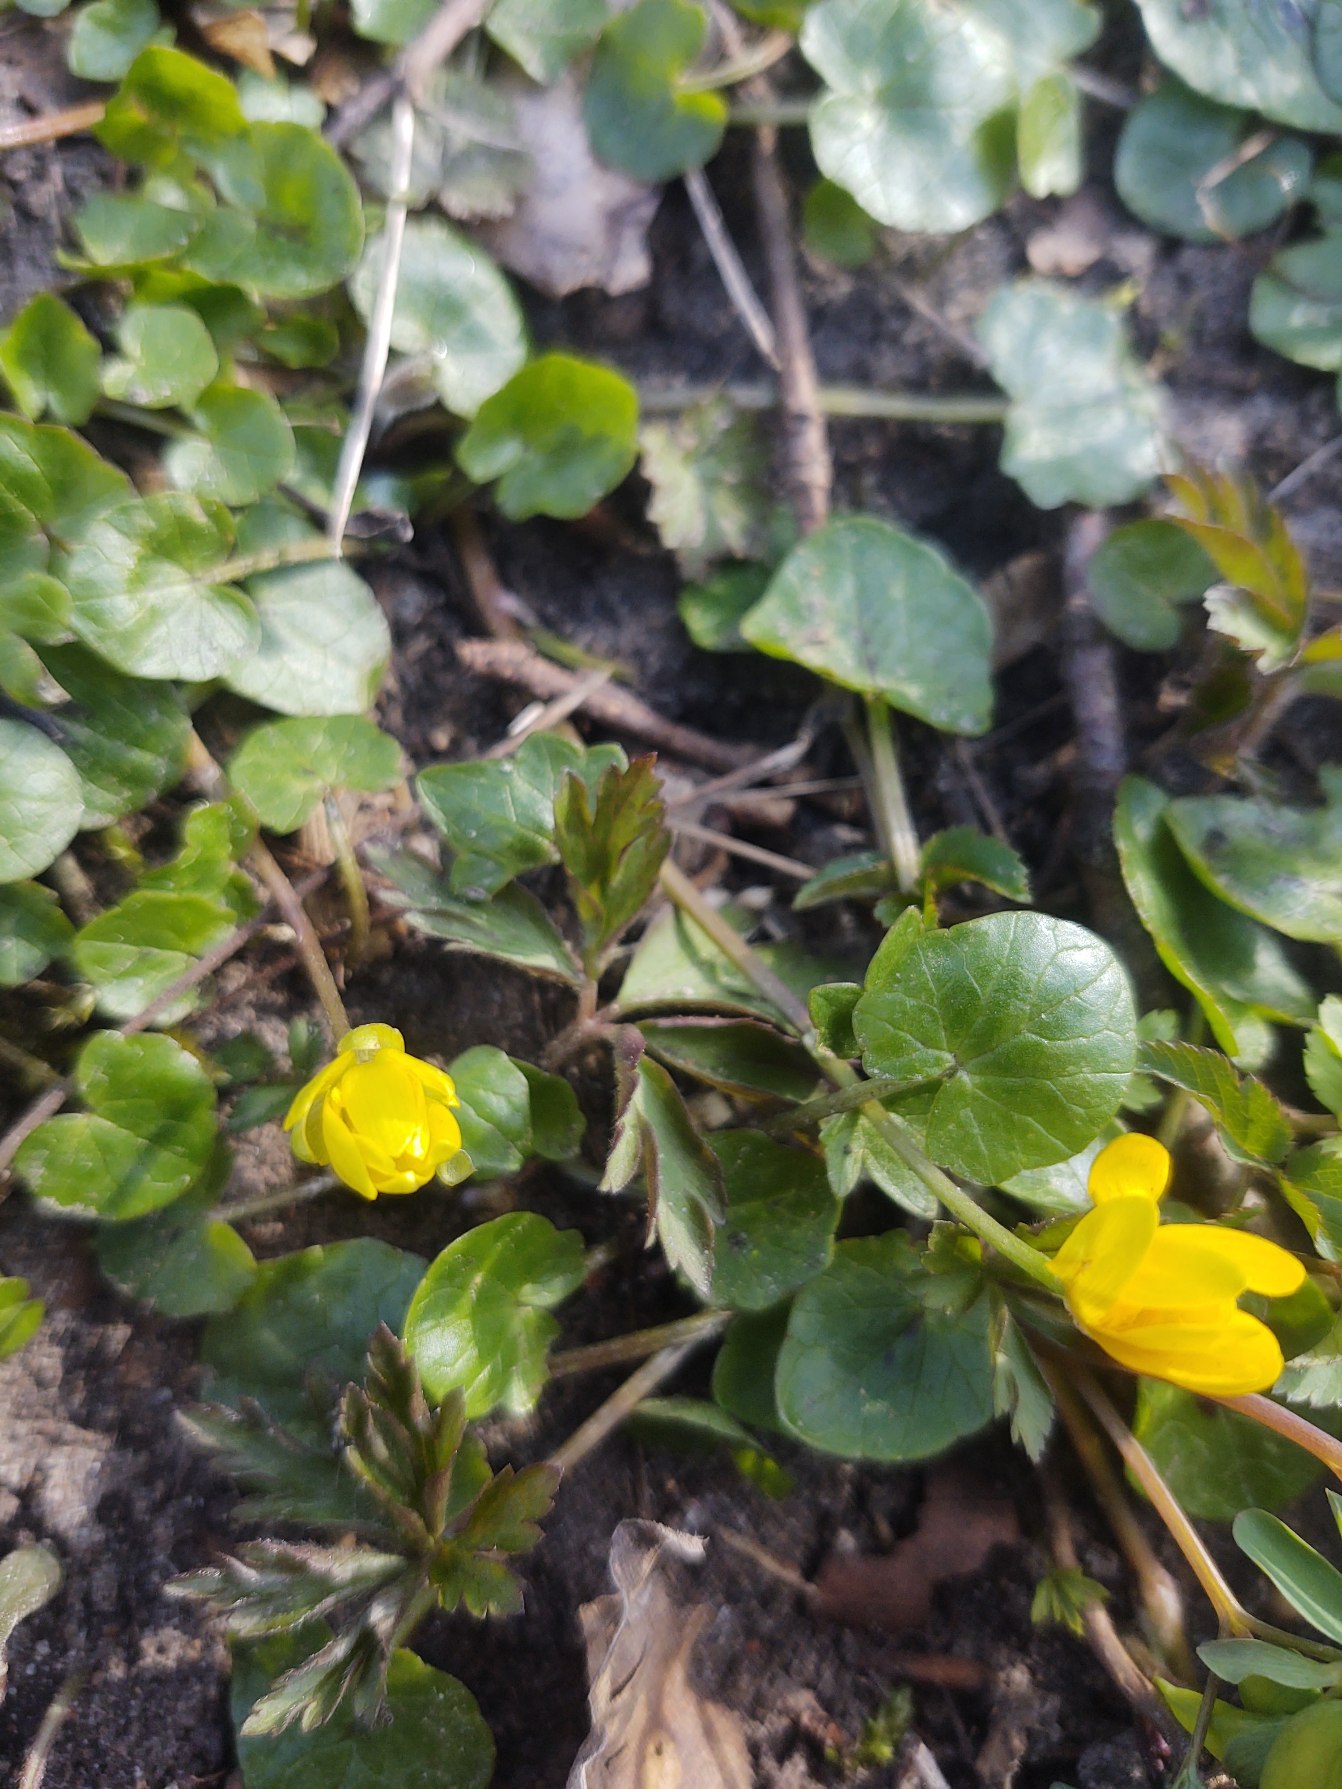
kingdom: Plantae
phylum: Tracheophyta
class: Magnoliopsida
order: Ranunculales
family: Ranunculaceae
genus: Ficaria
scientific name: Ficaria verna
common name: Vorterod
